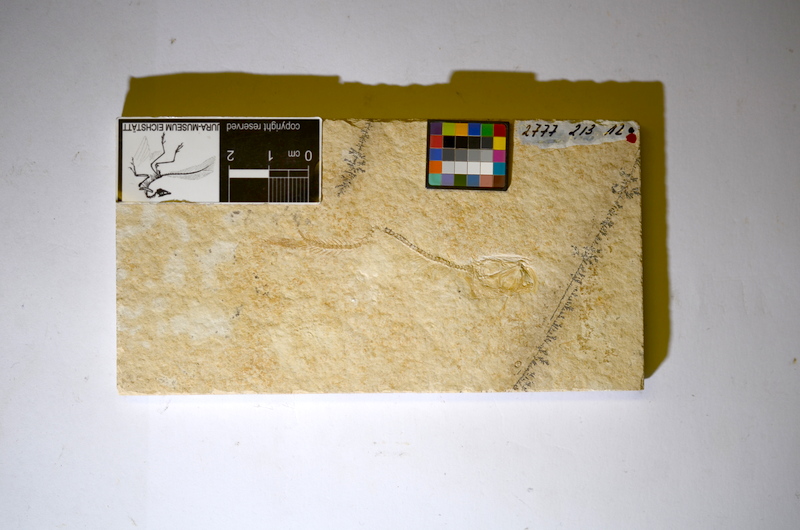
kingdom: Animalia
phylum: Chordata
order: Salmoniformes
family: Orthogonikleithridae
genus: Leptolepides
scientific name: Leptolepides sprattiformis
